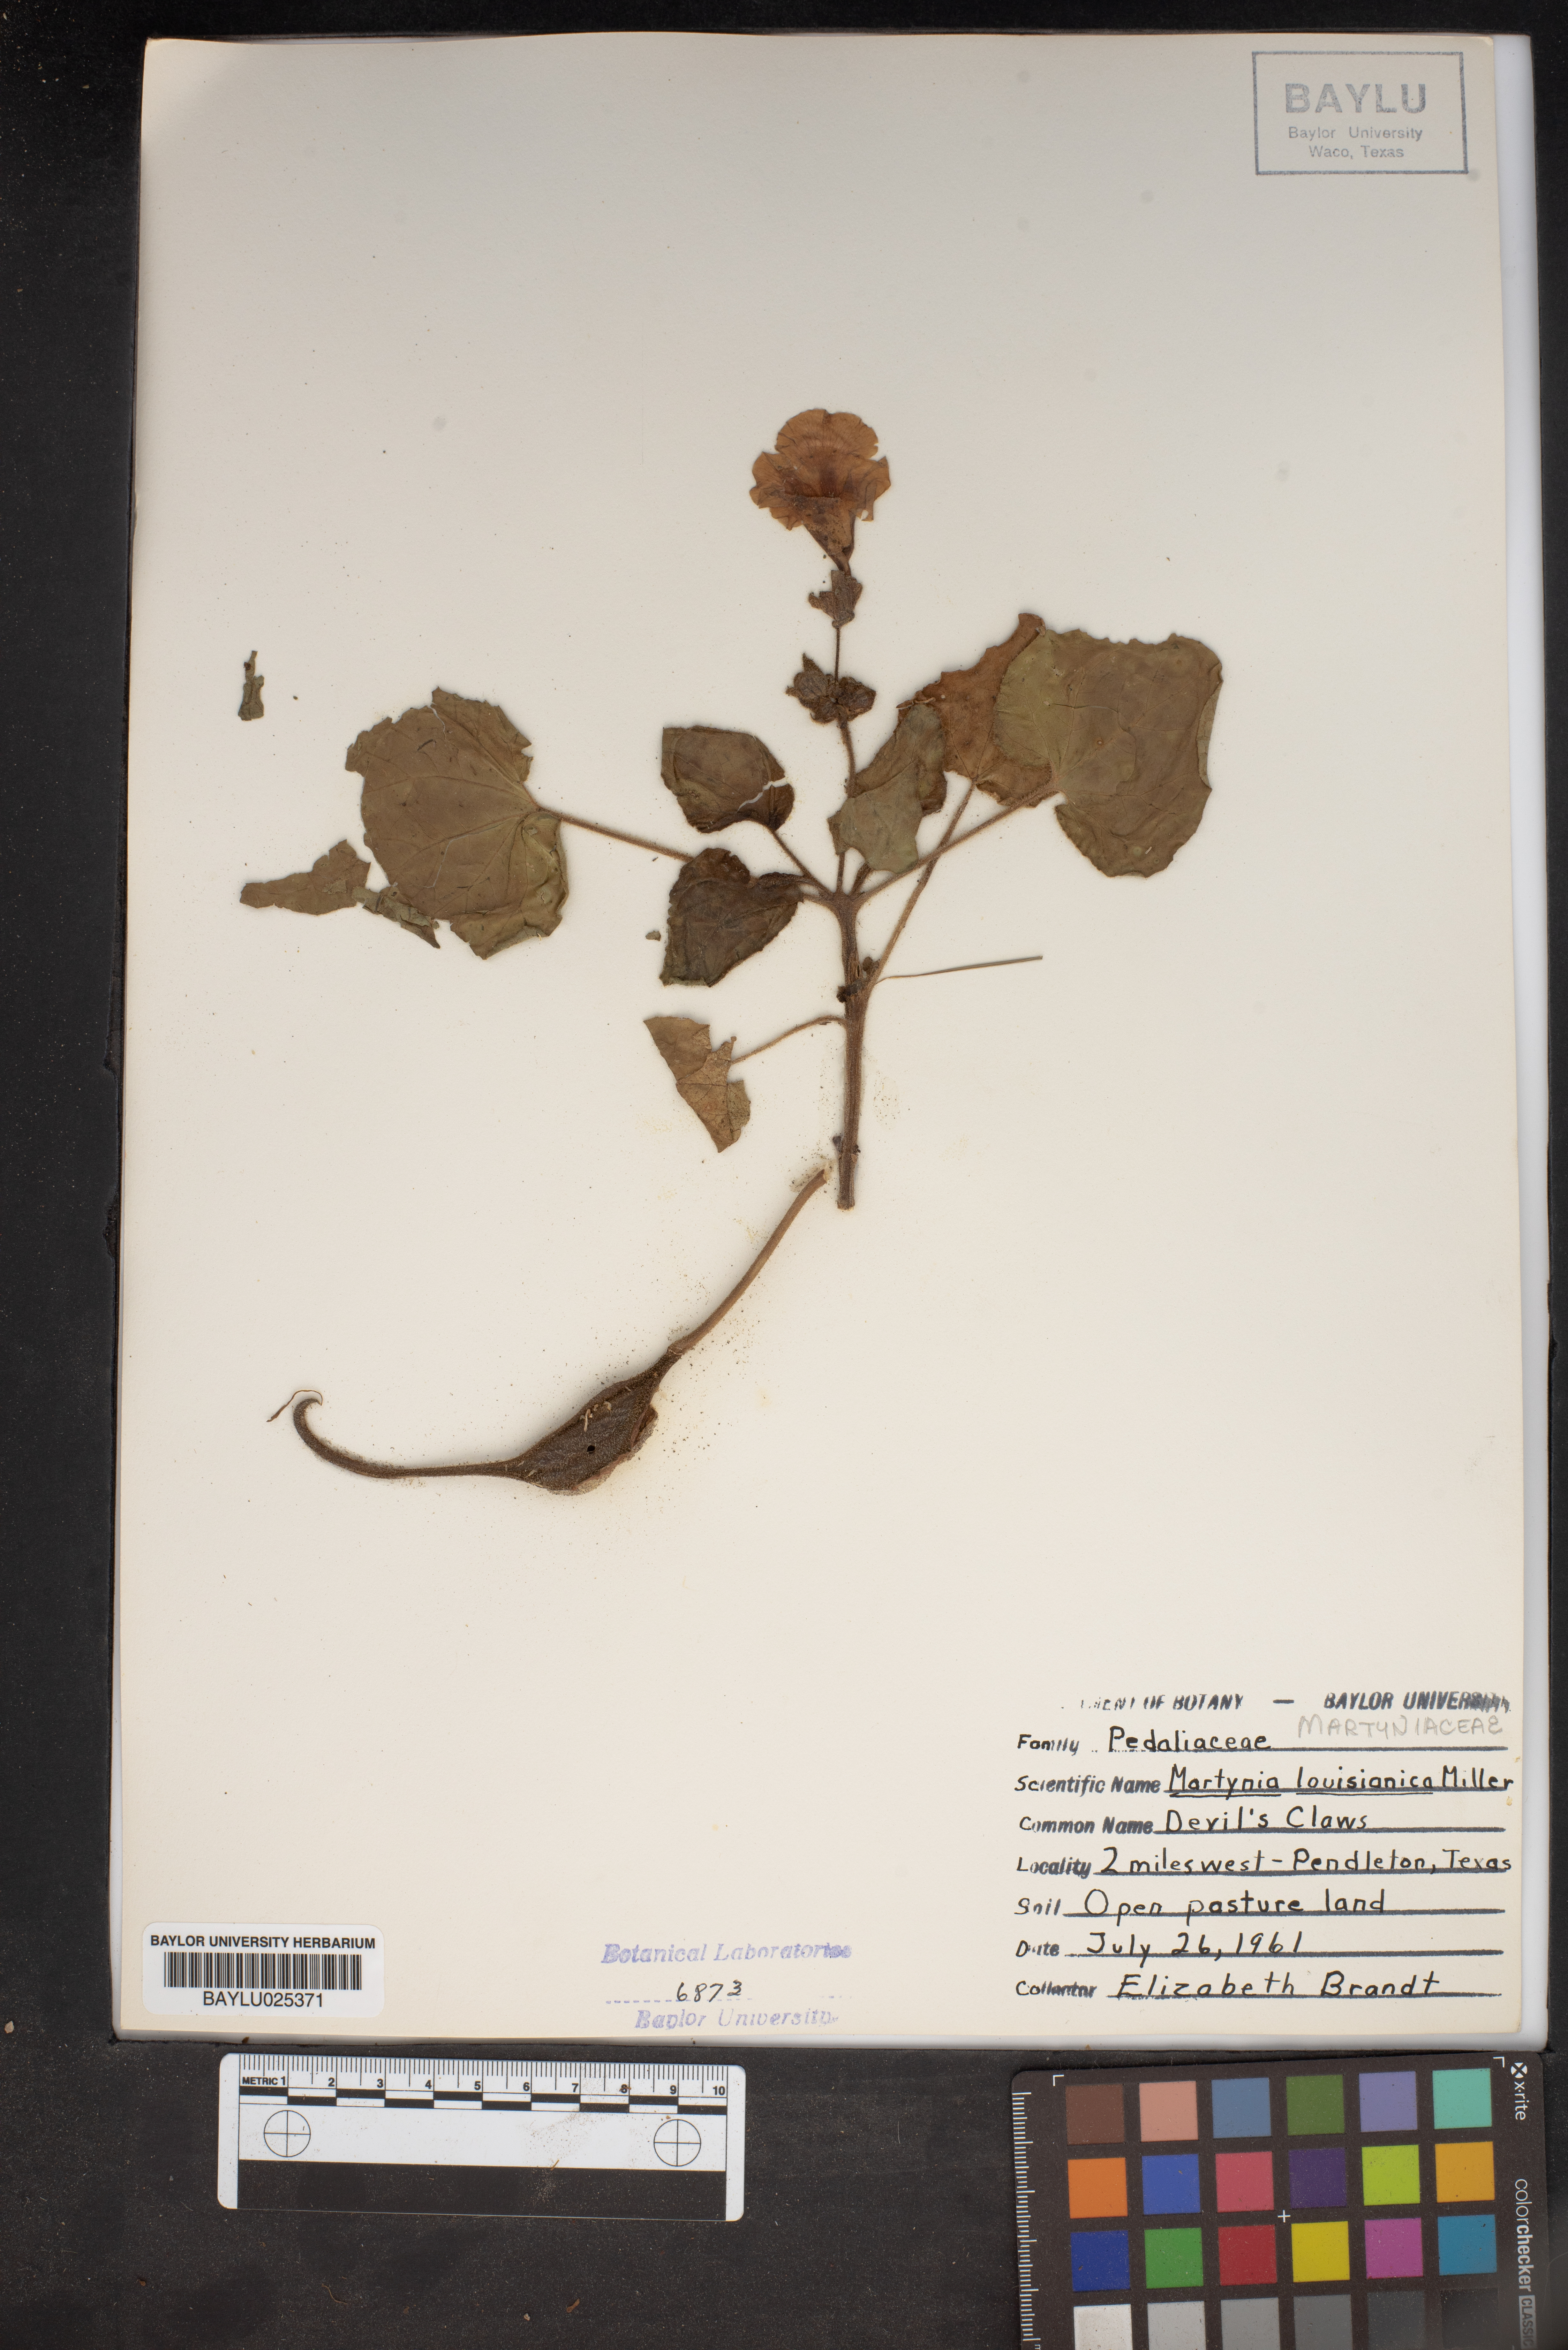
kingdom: Plantae
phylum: Tracheophyta
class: Magnoliopsida
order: Lamiales
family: Martyniaceae
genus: Proboscidea
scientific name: Proboscidea louisianica
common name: Elephant tusks
